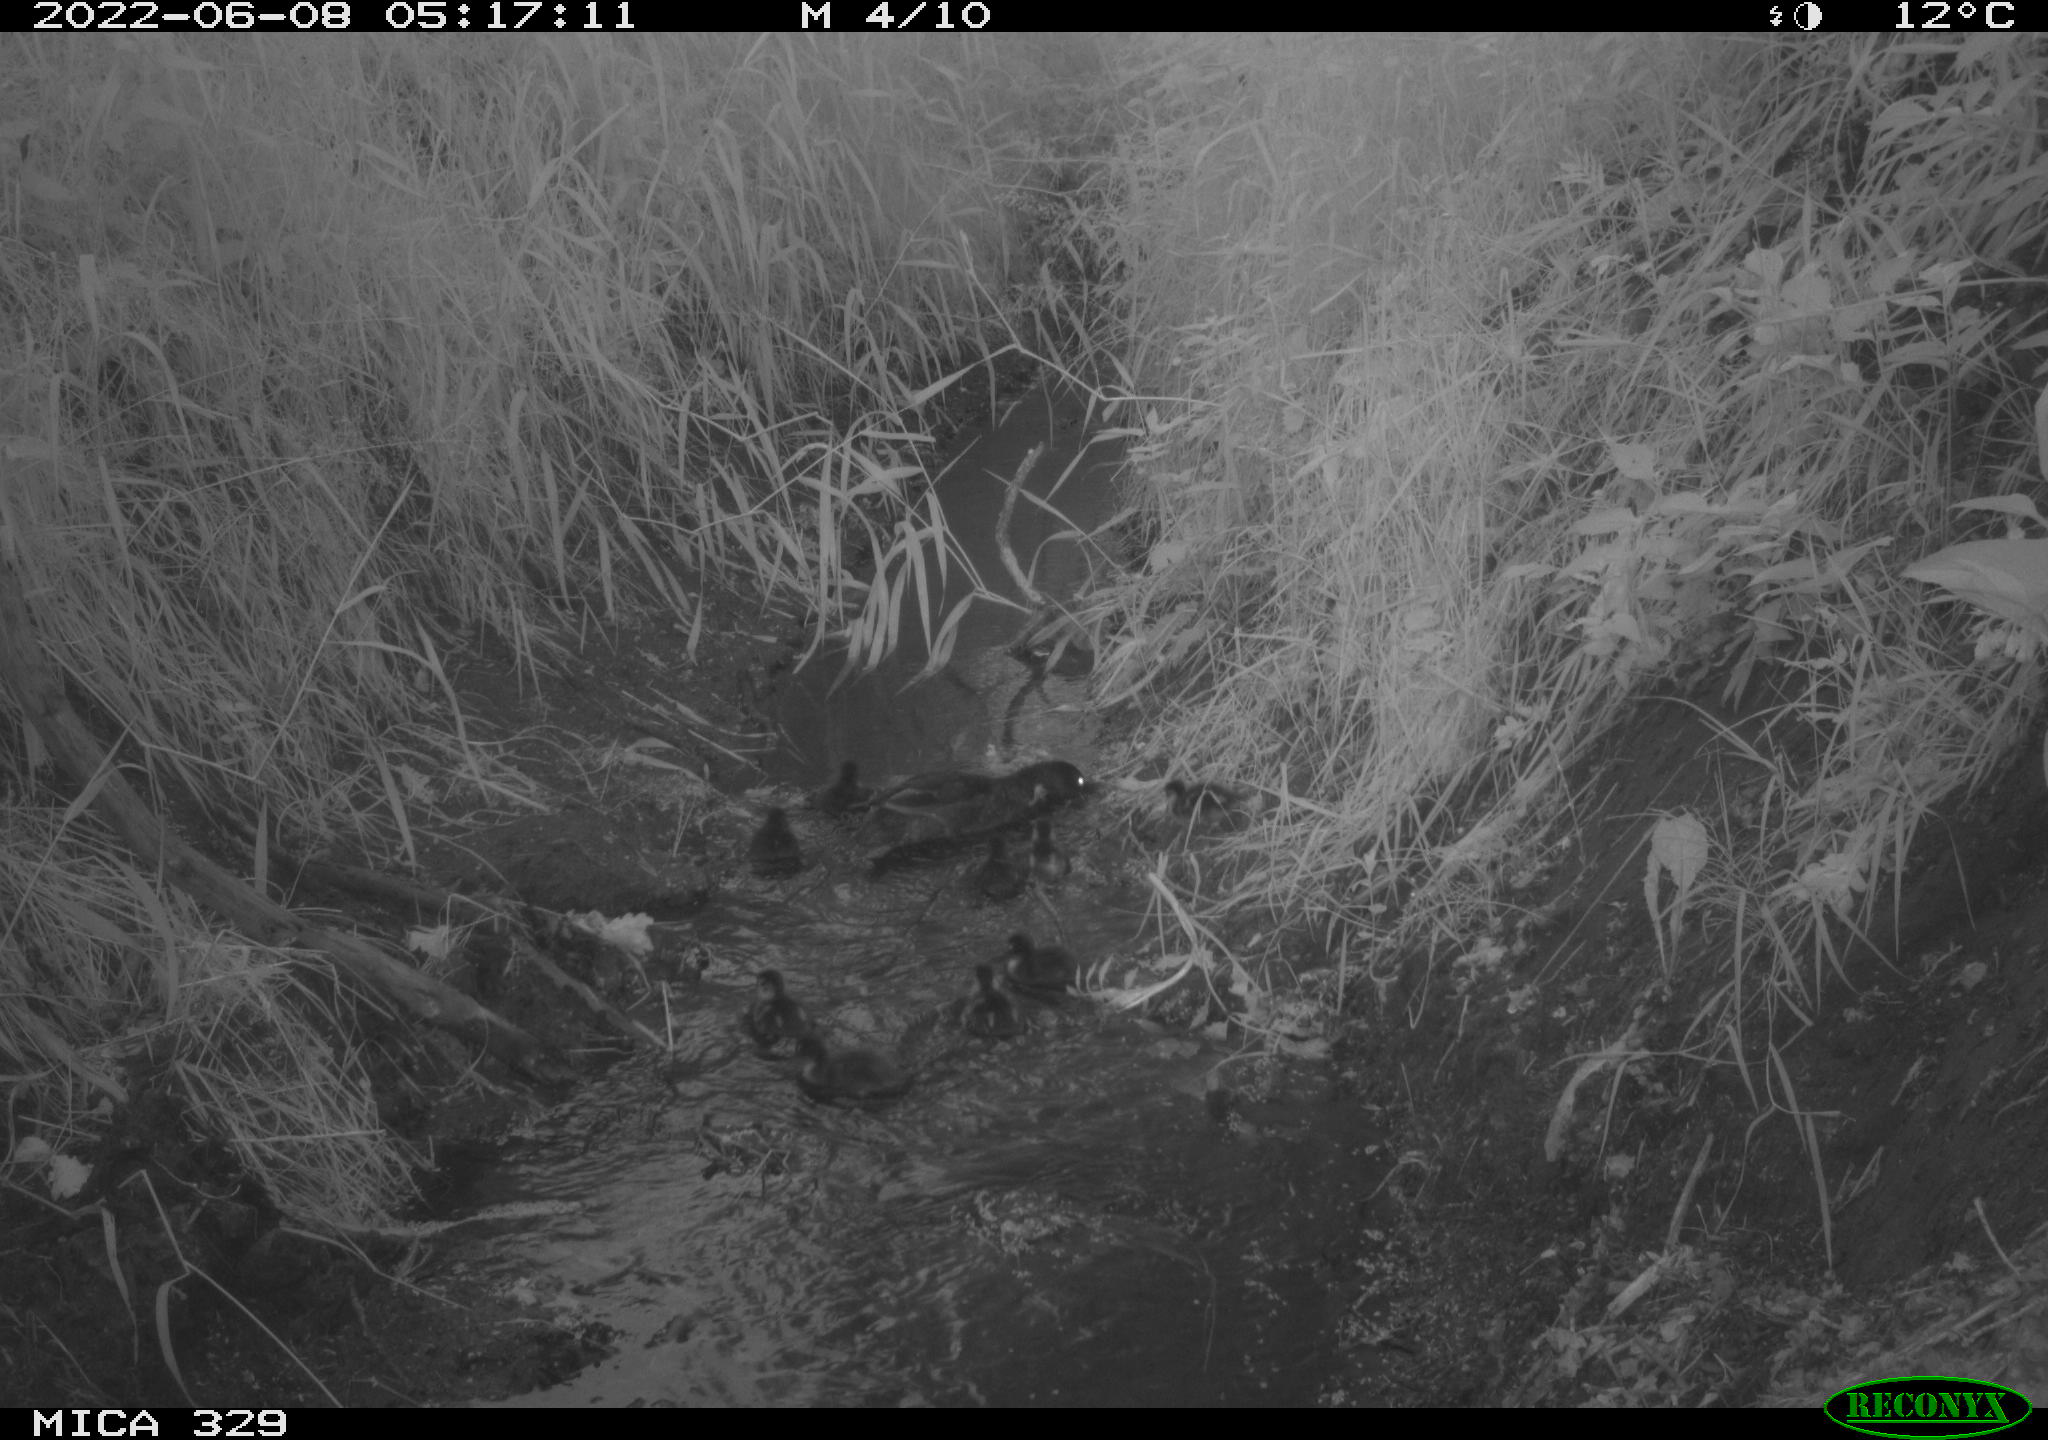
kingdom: Animalia
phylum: Chordata
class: Aves
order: Anseriformes
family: Anatidae
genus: Anas
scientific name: Anas
